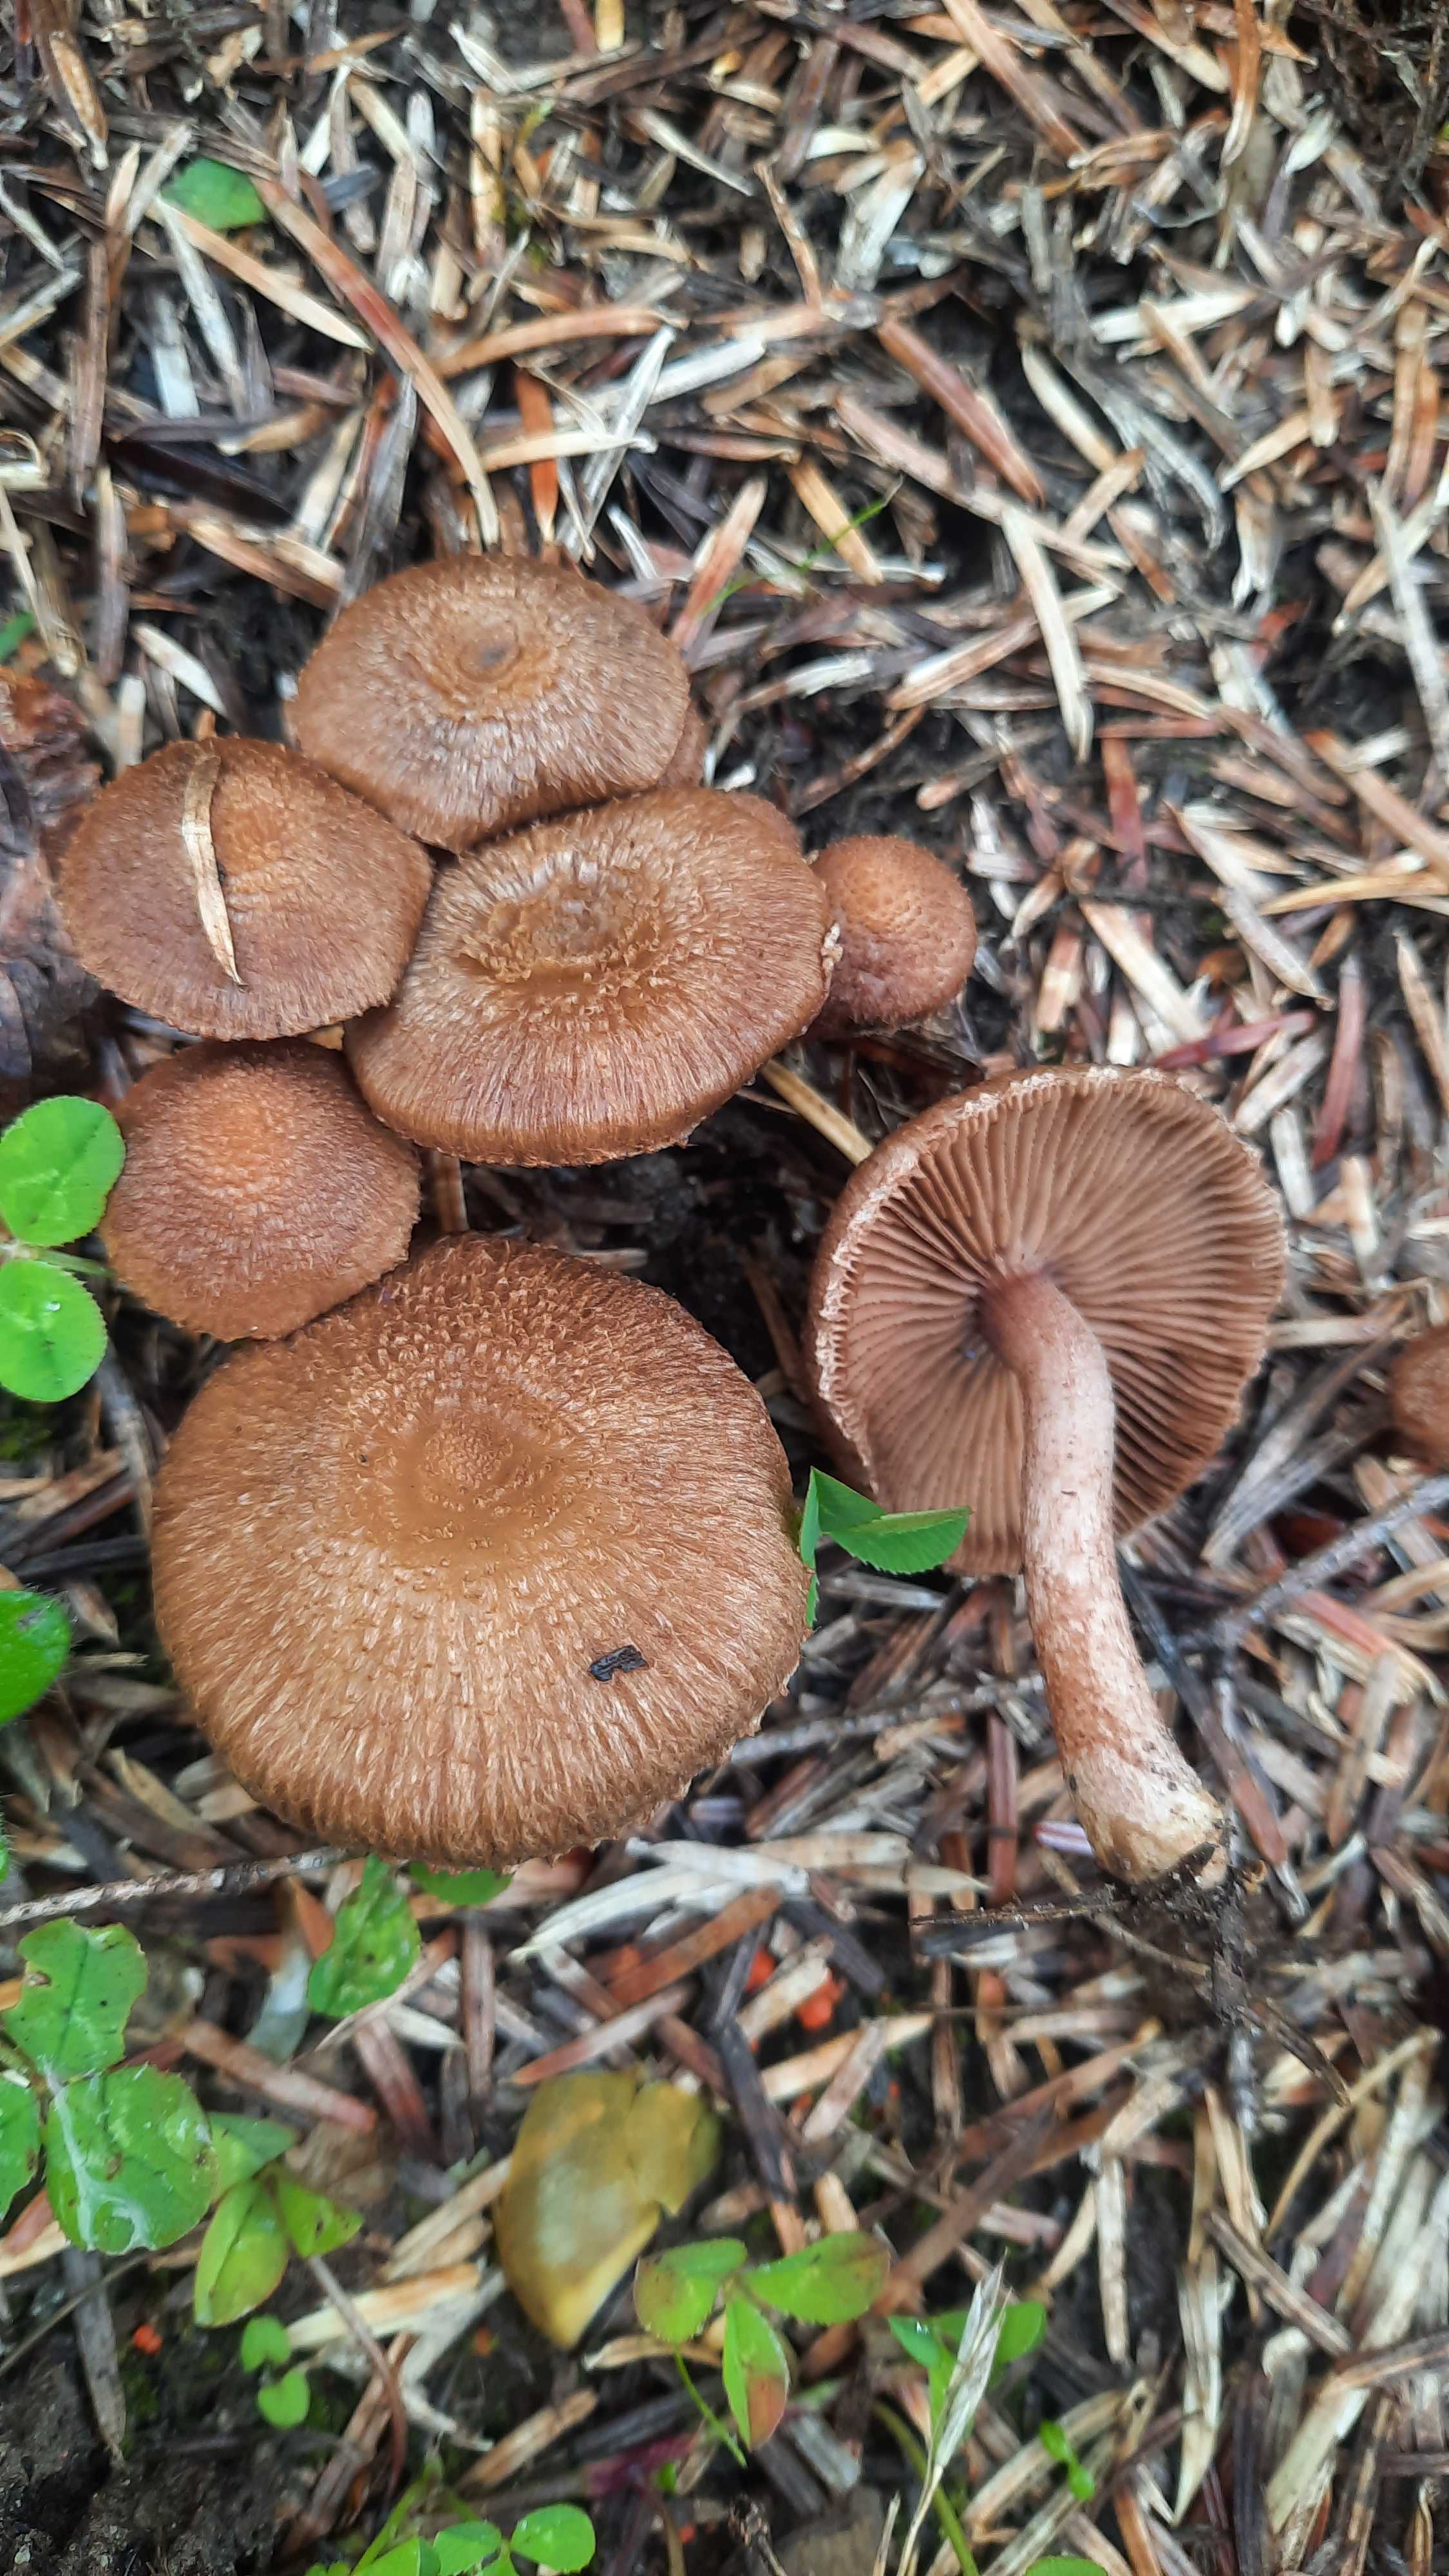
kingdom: Fungi
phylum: Basidiomycota
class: Agaricomycetes
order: Agaricales
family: Inocybaceae
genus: Inocybe
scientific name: Inocybe
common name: trævlhat
